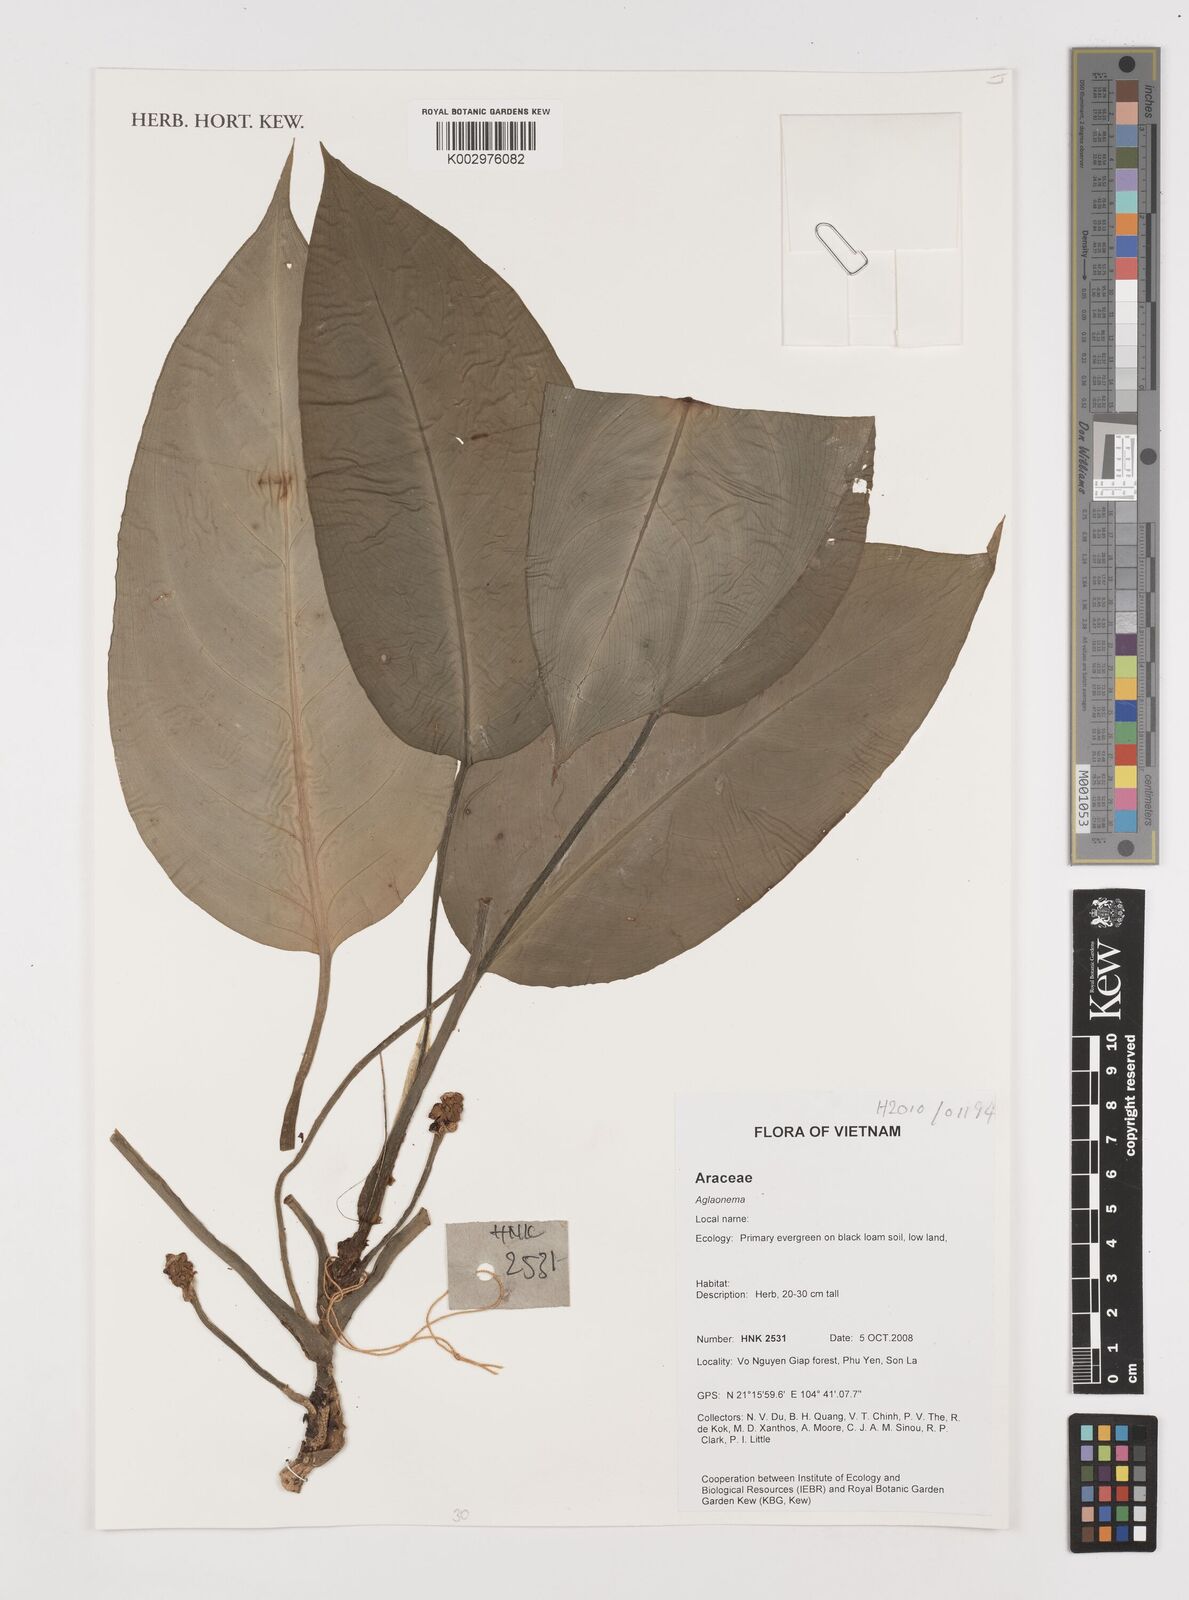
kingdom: Plantae
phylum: Tracheophyta
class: Liliopsida
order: Alismatales
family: Araceae
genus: Aglaonema
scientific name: Aglaonema
